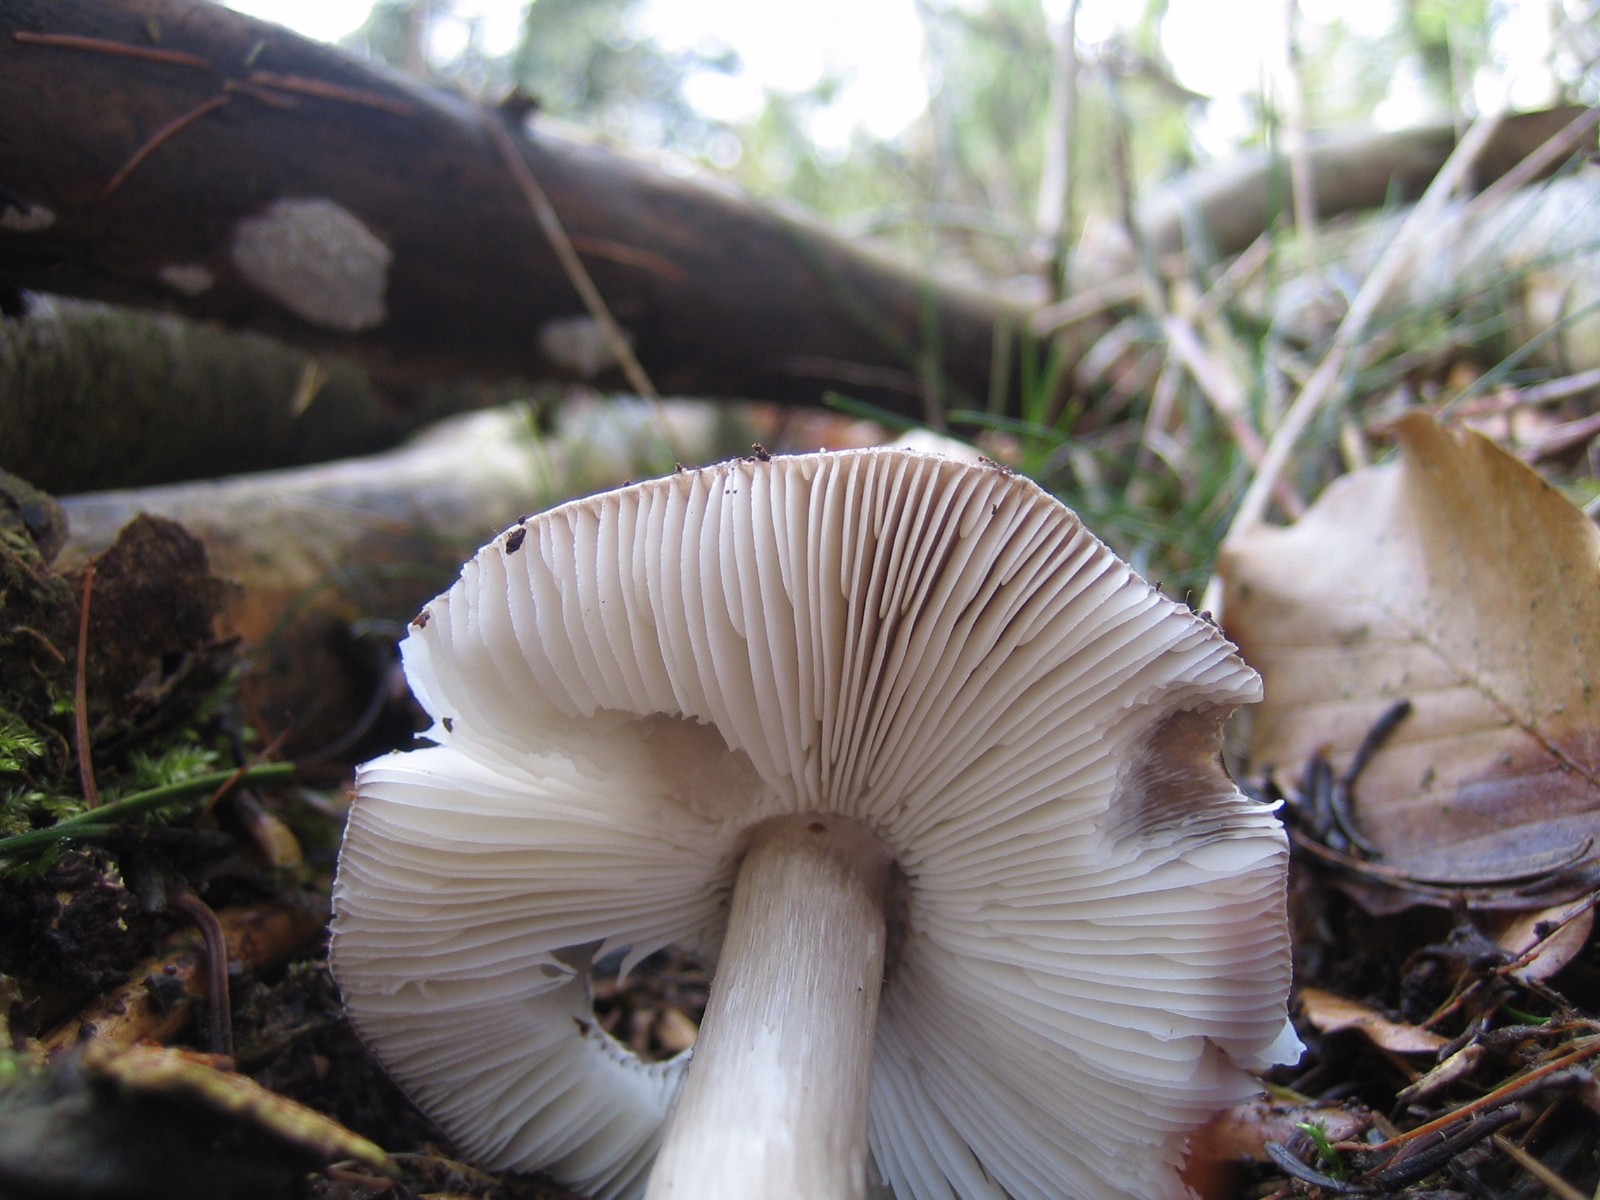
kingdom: Fungi
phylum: Basidiomycota
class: Agaricomycetes
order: Agaricales
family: Pluteaceae
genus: Pluteus
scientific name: Pluteus primus
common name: tidlig skærmhat
